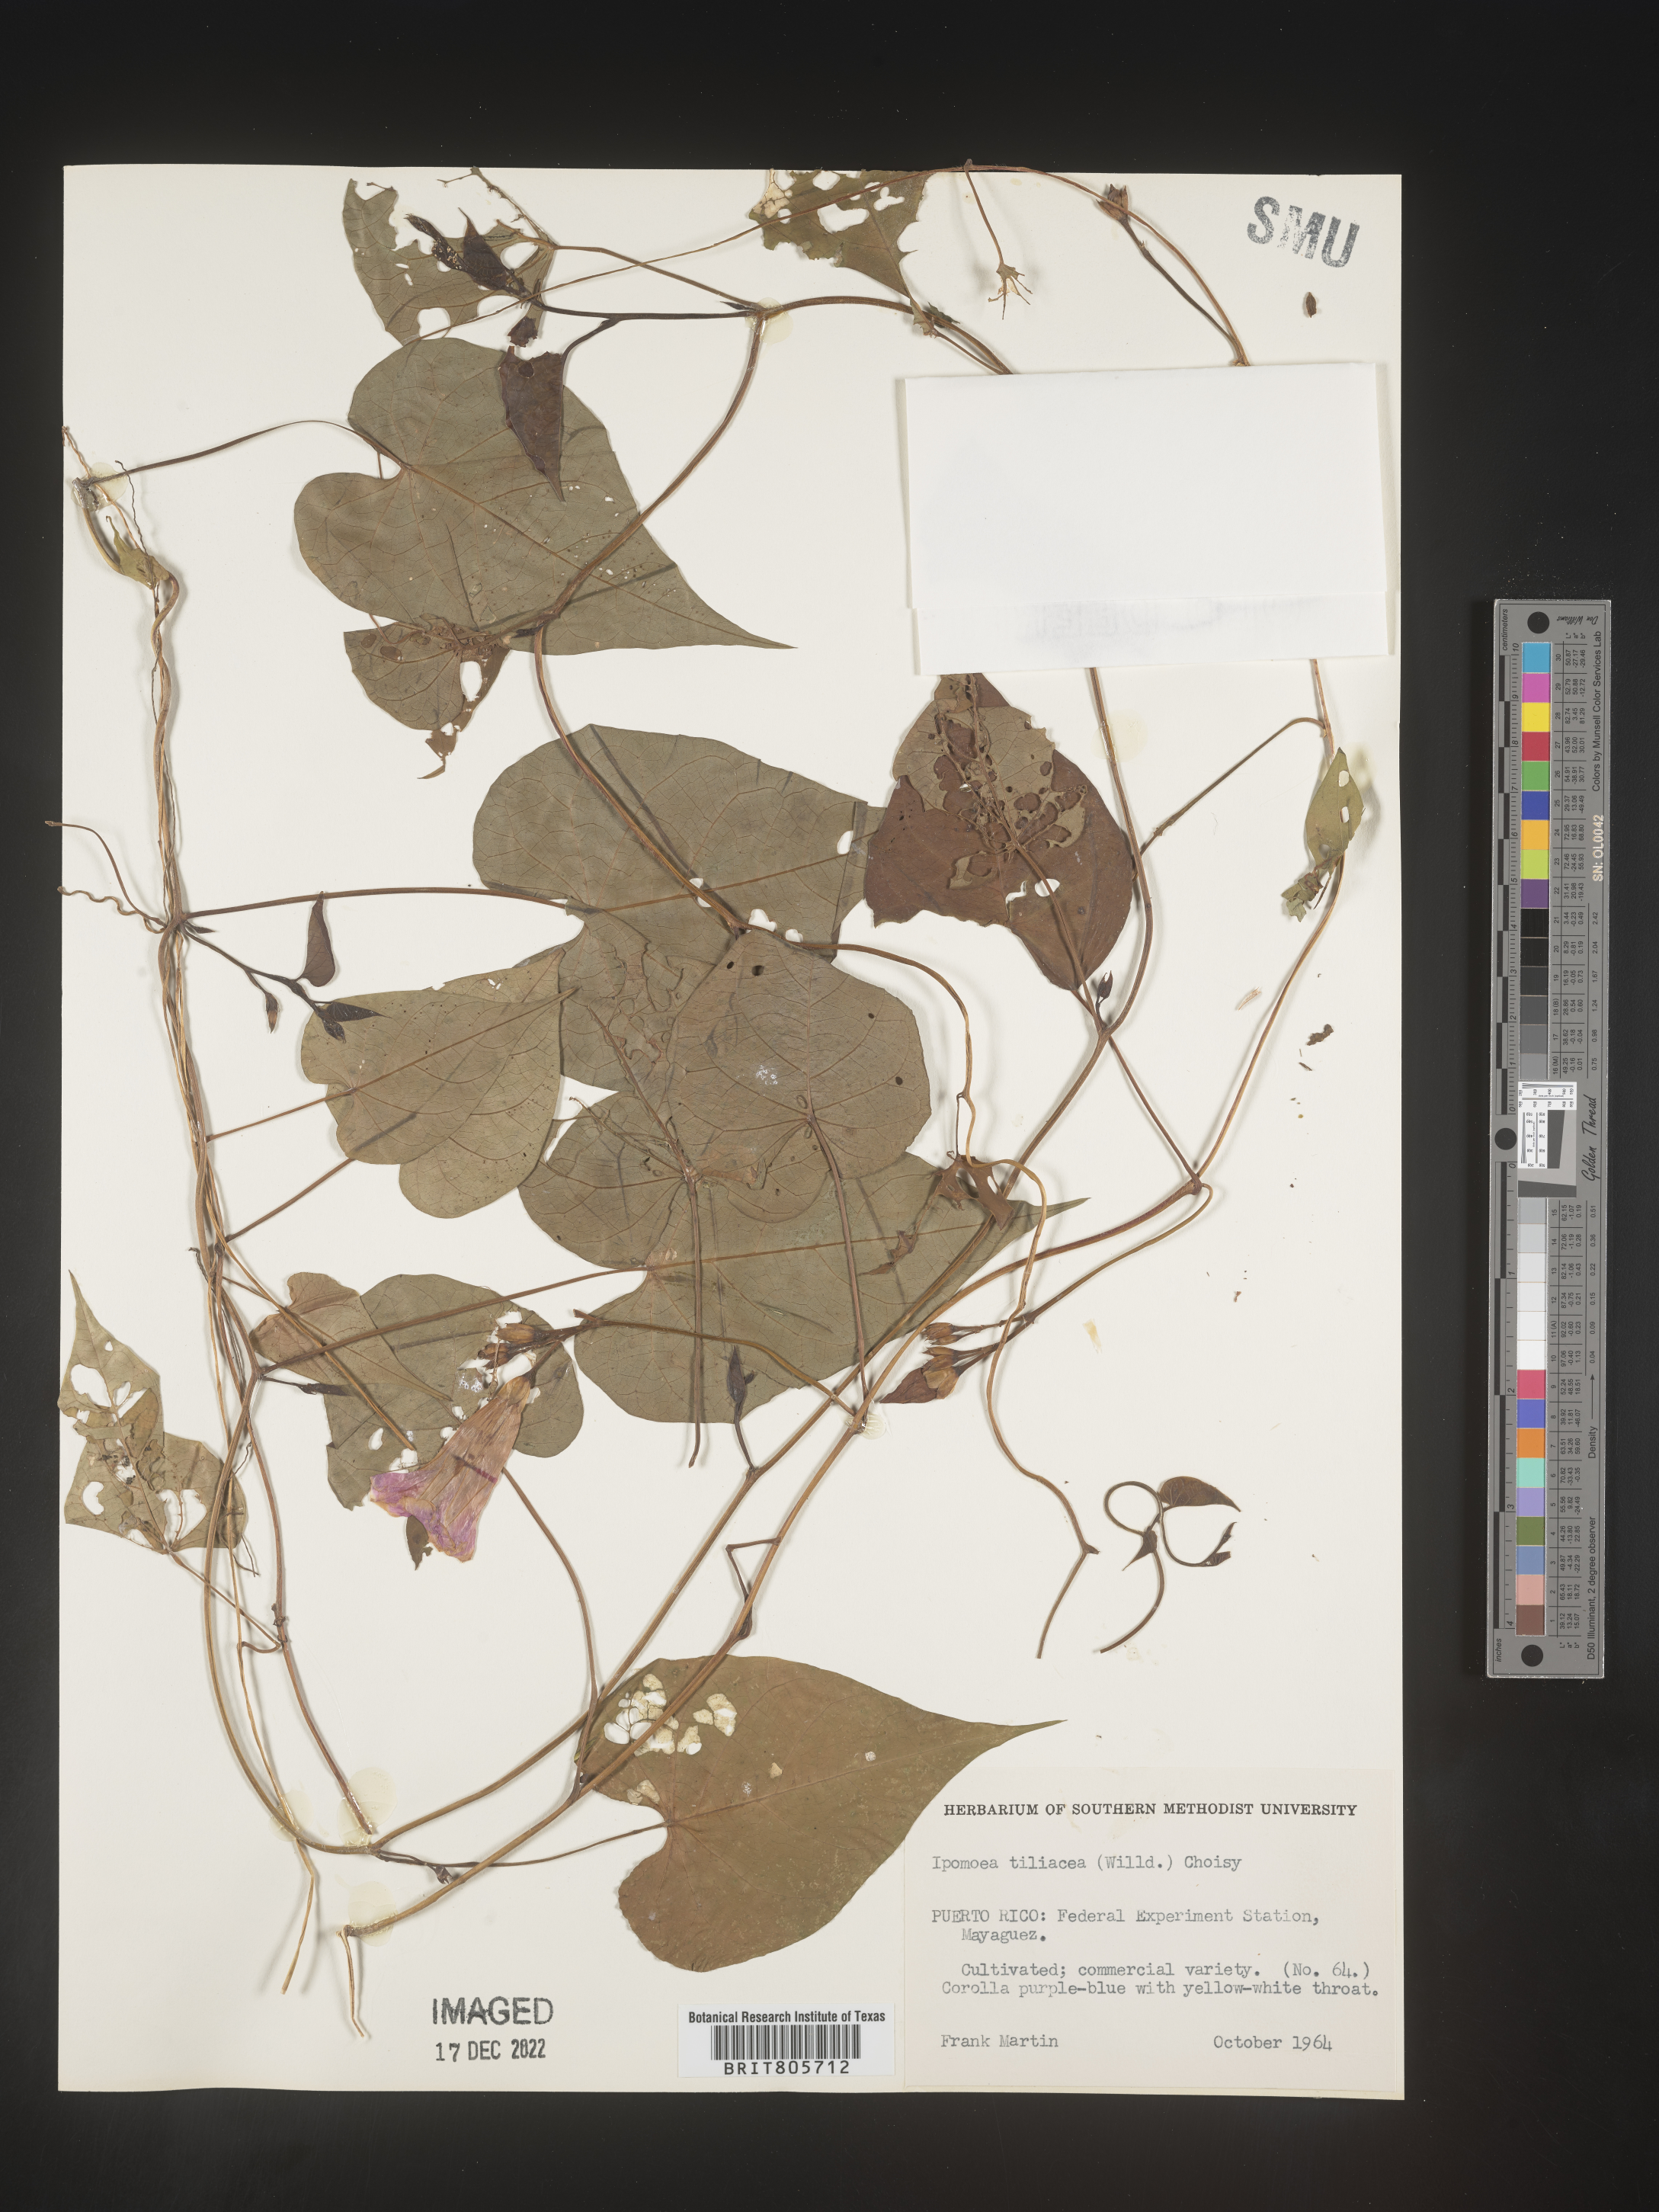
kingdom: Plantae
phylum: Tracheophyta
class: Magnoliopsida
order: Solanales
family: Convolvulaceae
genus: Ipomoea
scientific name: Ipomoea
